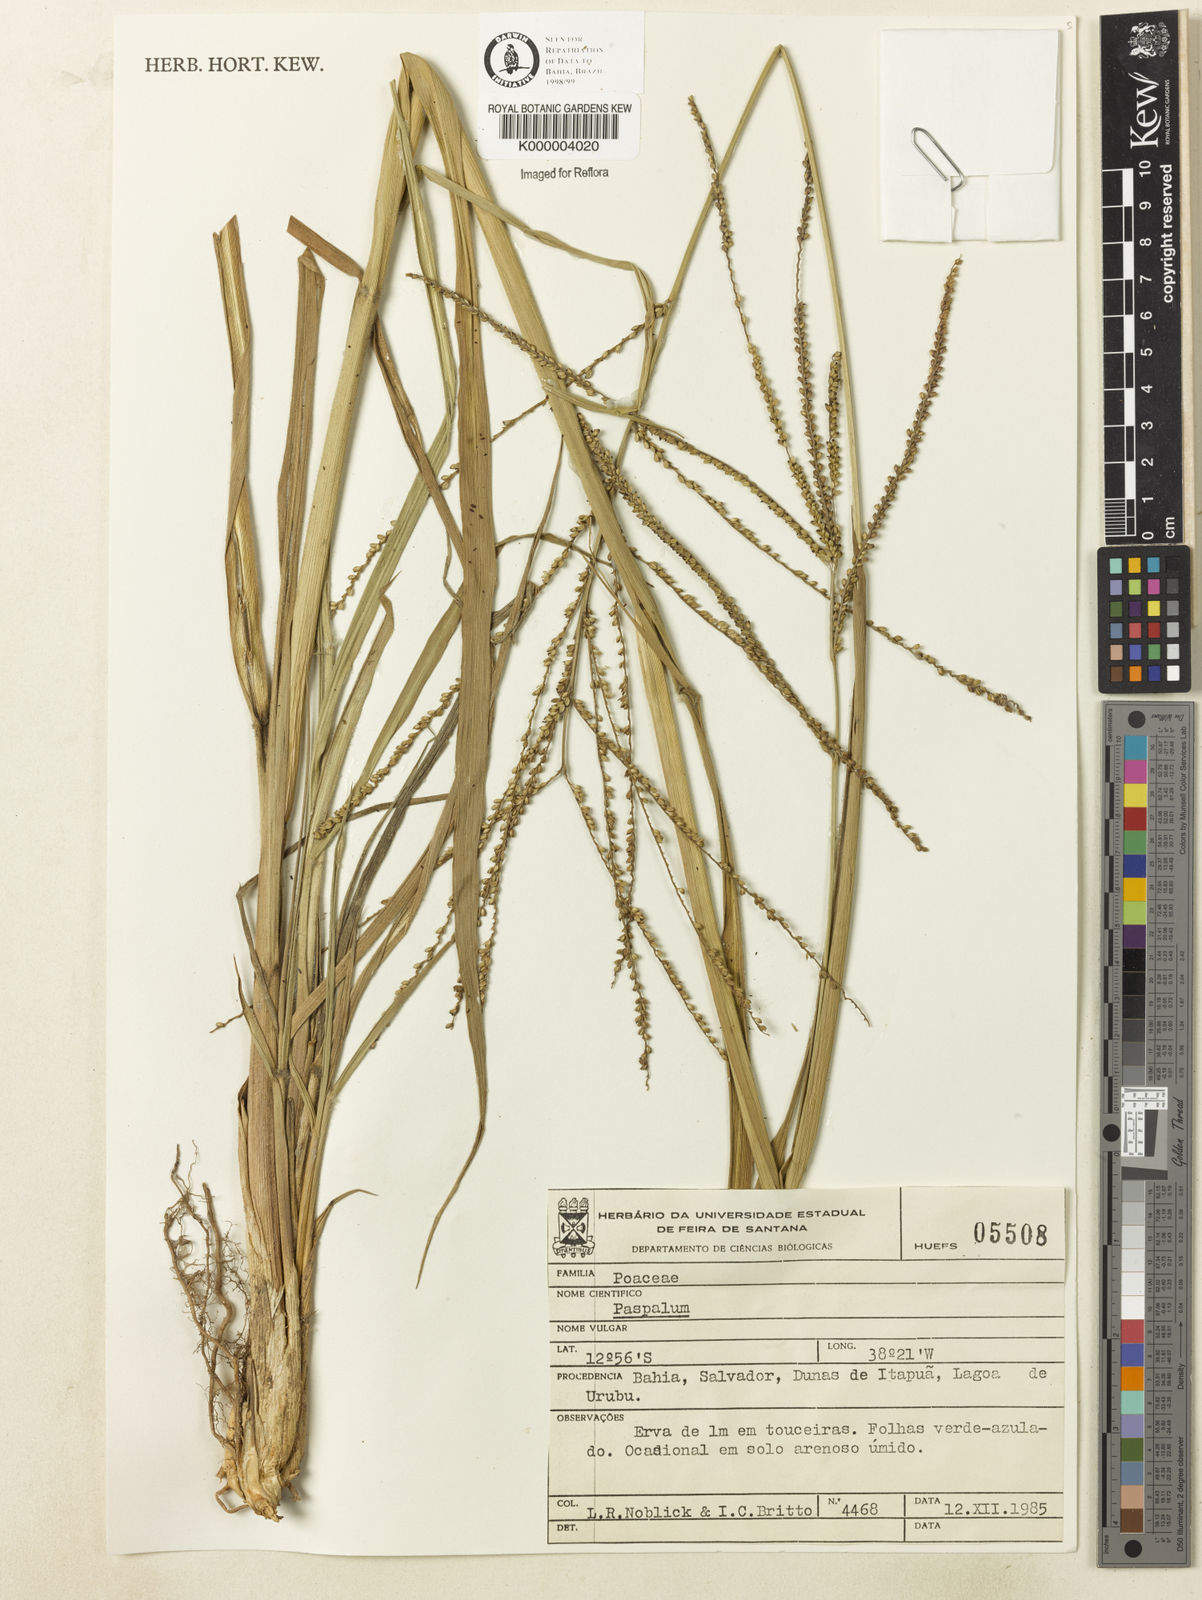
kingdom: Plantae
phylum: Tracheophyta
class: Liliopsida
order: Poales
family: Poaceae
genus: Paspalum
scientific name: Paspalum
